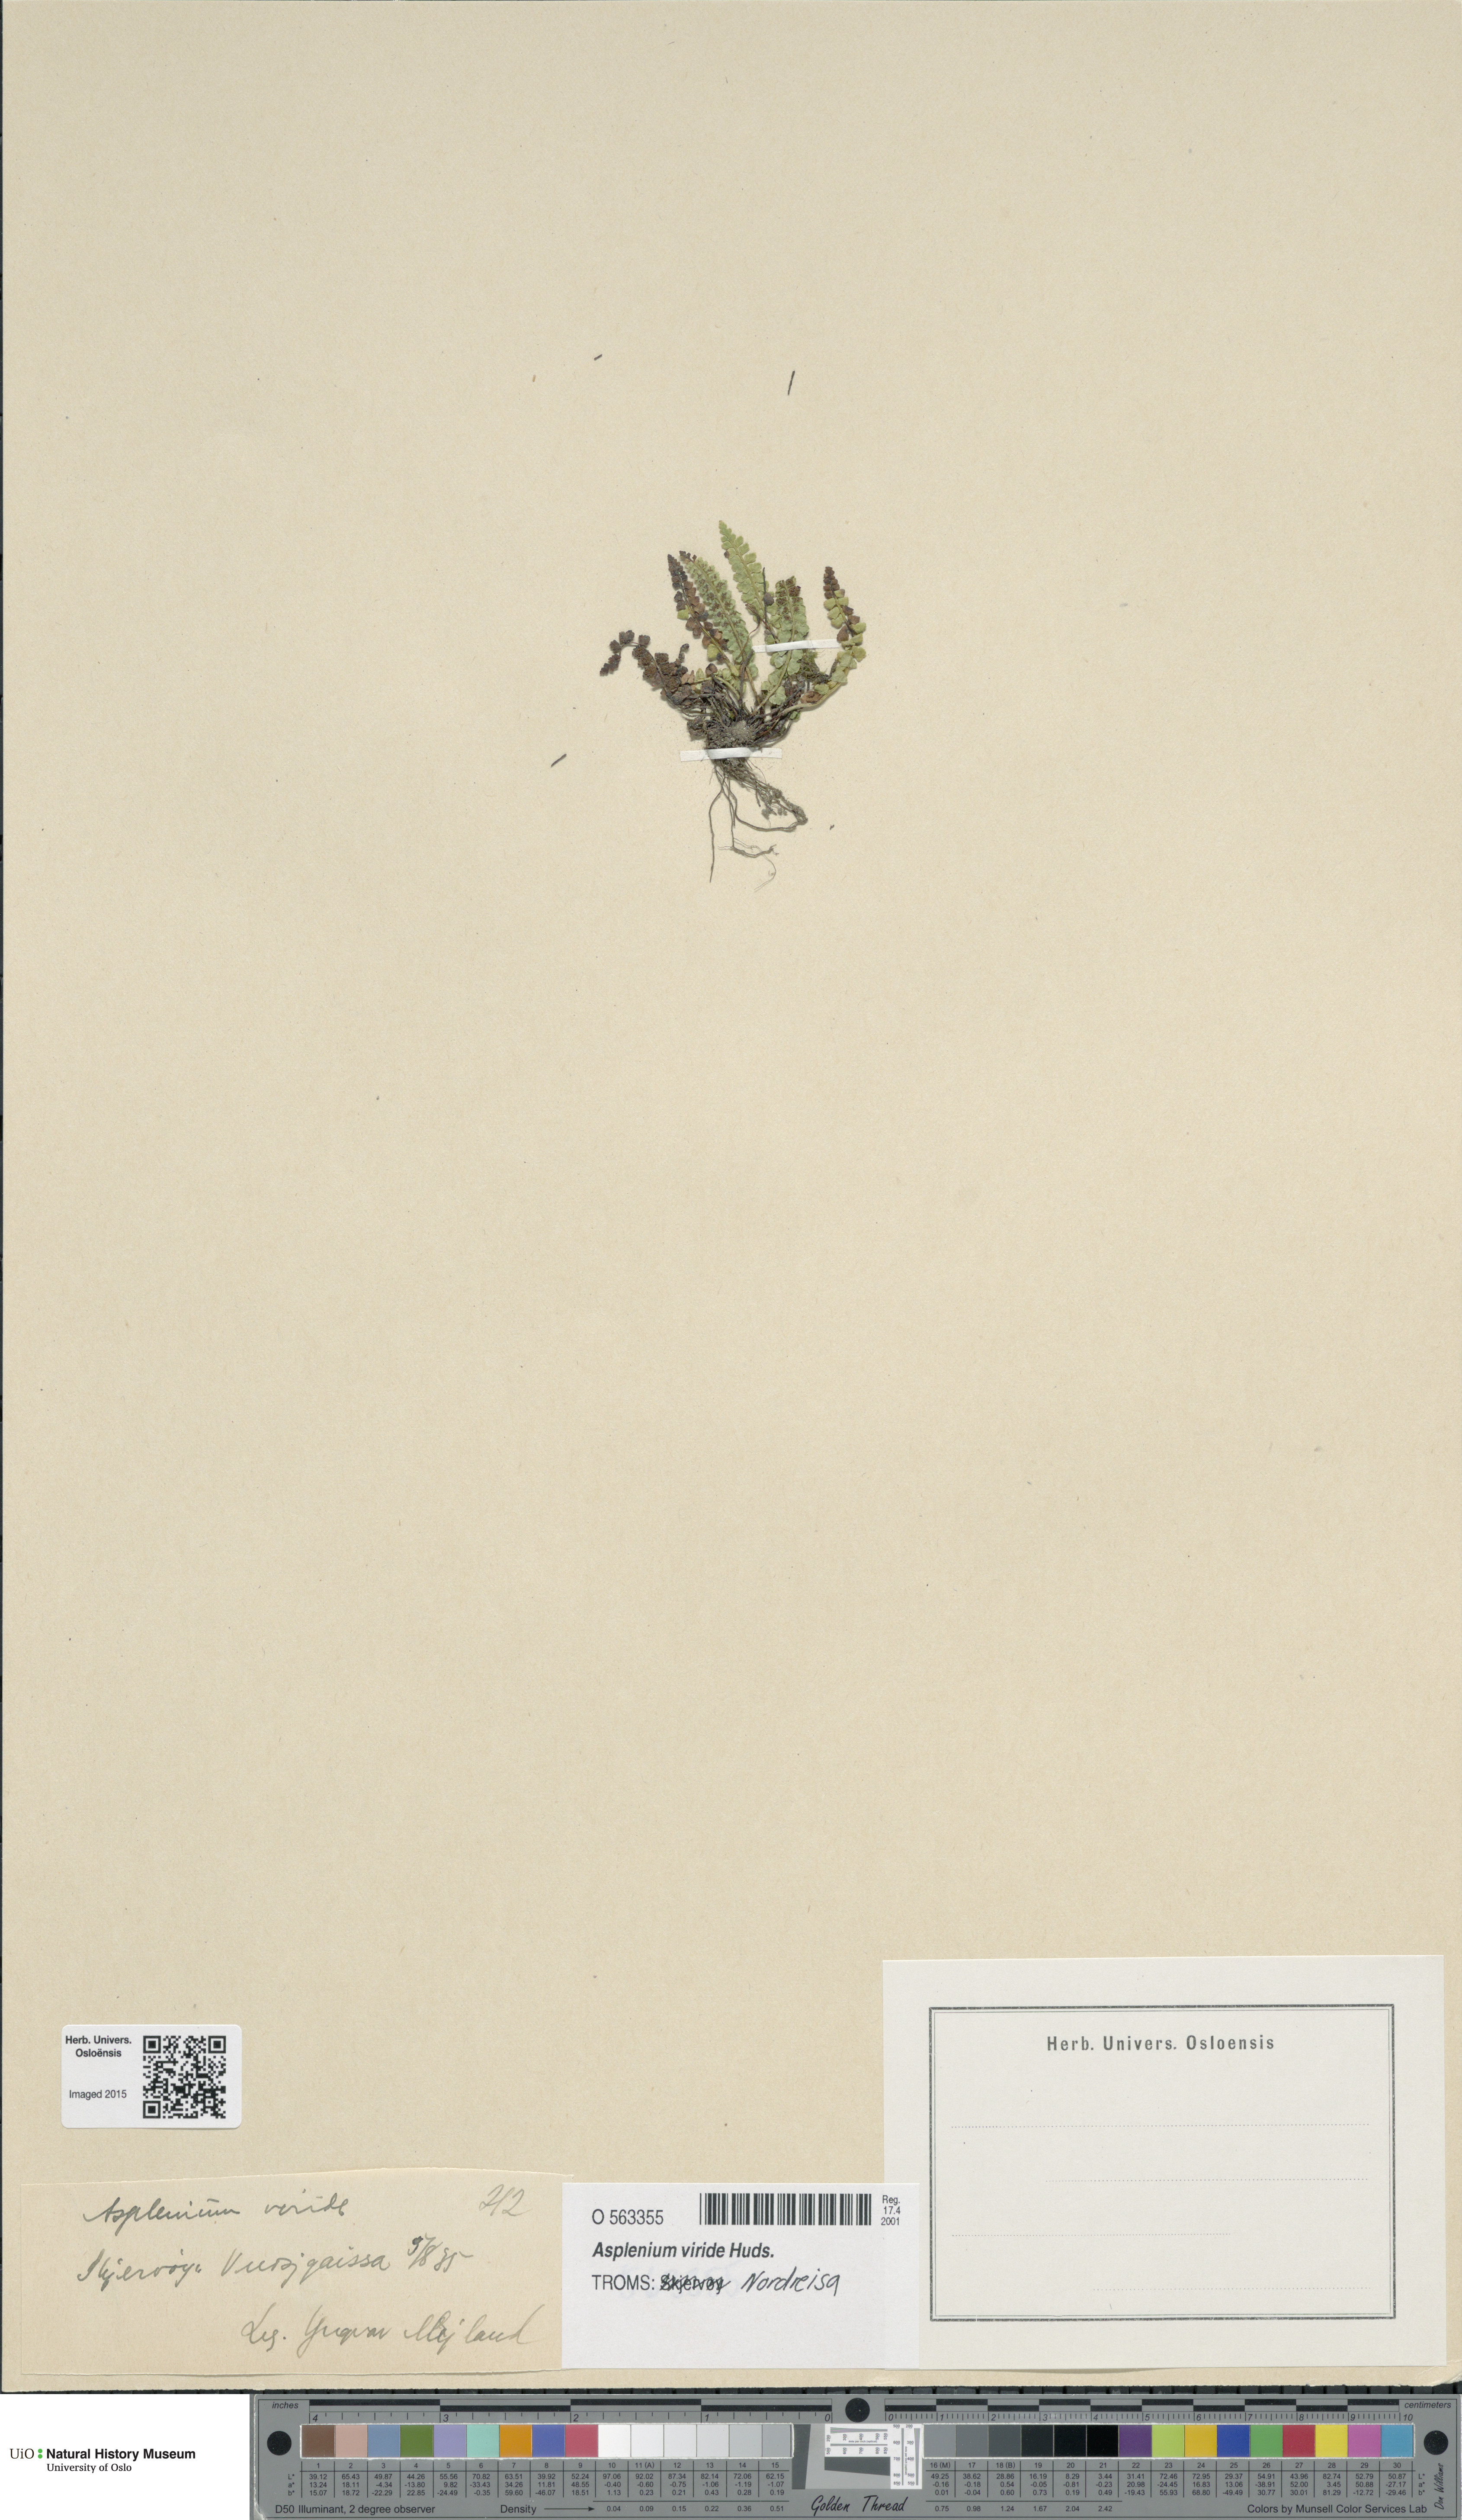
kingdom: Plantae
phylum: Tracheophyta
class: Polypodiopsida
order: Polypodiales
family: Aspleniaceae
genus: Asplenium
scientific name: Asplenium viride
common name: Green spleenwort
